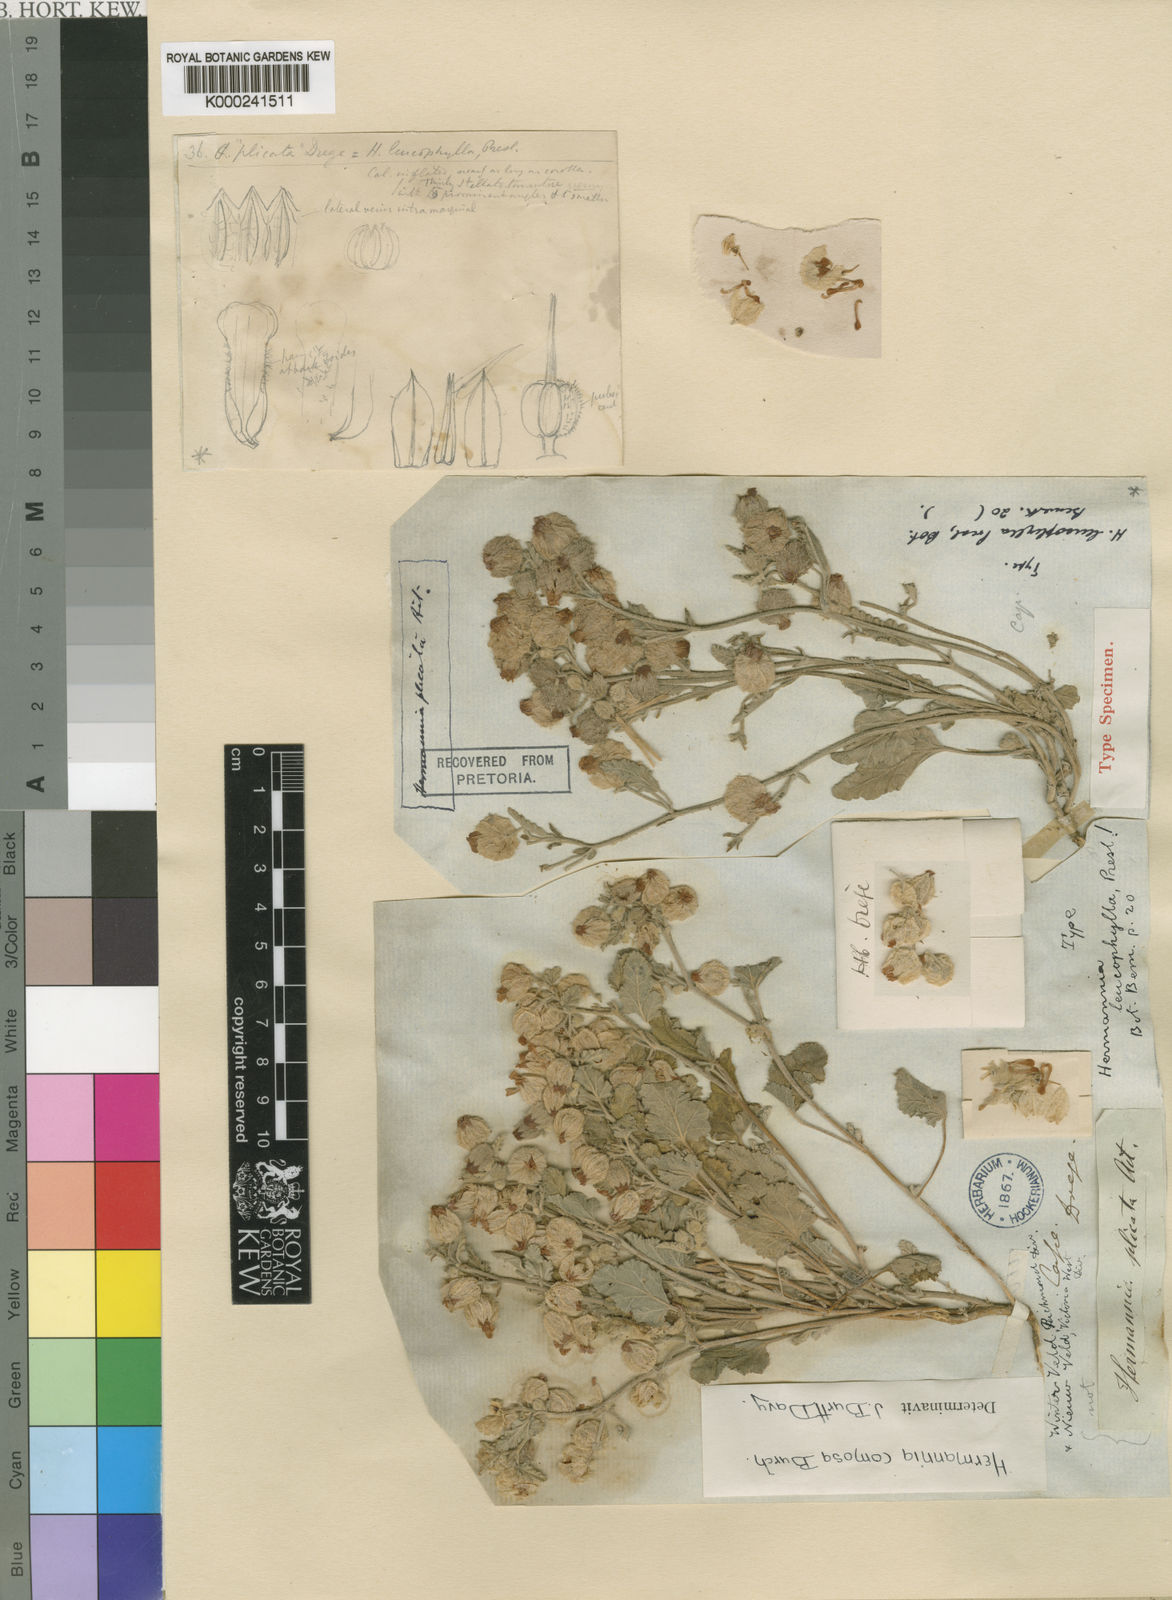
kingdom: Plantae
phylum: Tracheophyta
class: Magnoliopsida
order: Malvales
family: Malvaceae
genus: Hermannia
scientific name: Hermannia comosa
